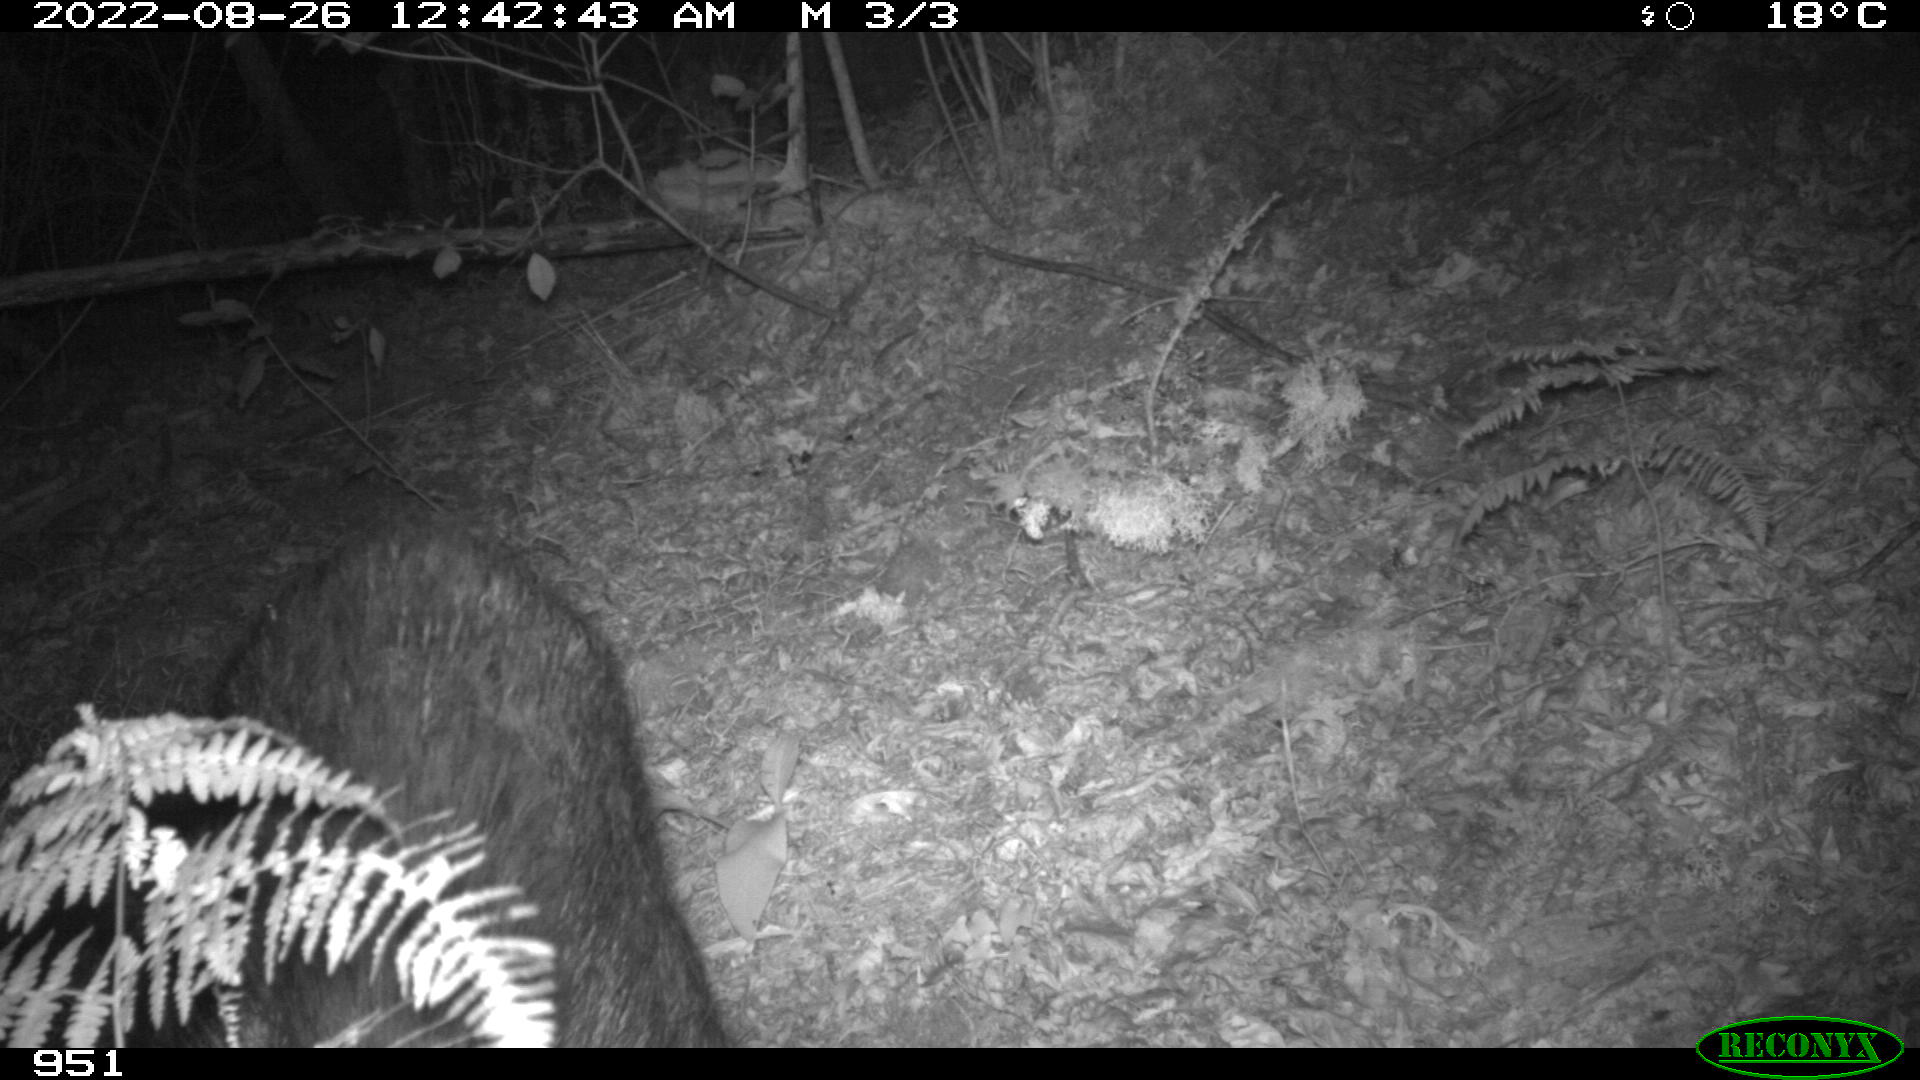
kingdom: Animalia
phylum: Chordata
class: Mammalia
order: Artiodactyla
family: Suidae
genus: Sus
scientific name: Sus scrofa
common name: Wild boar
